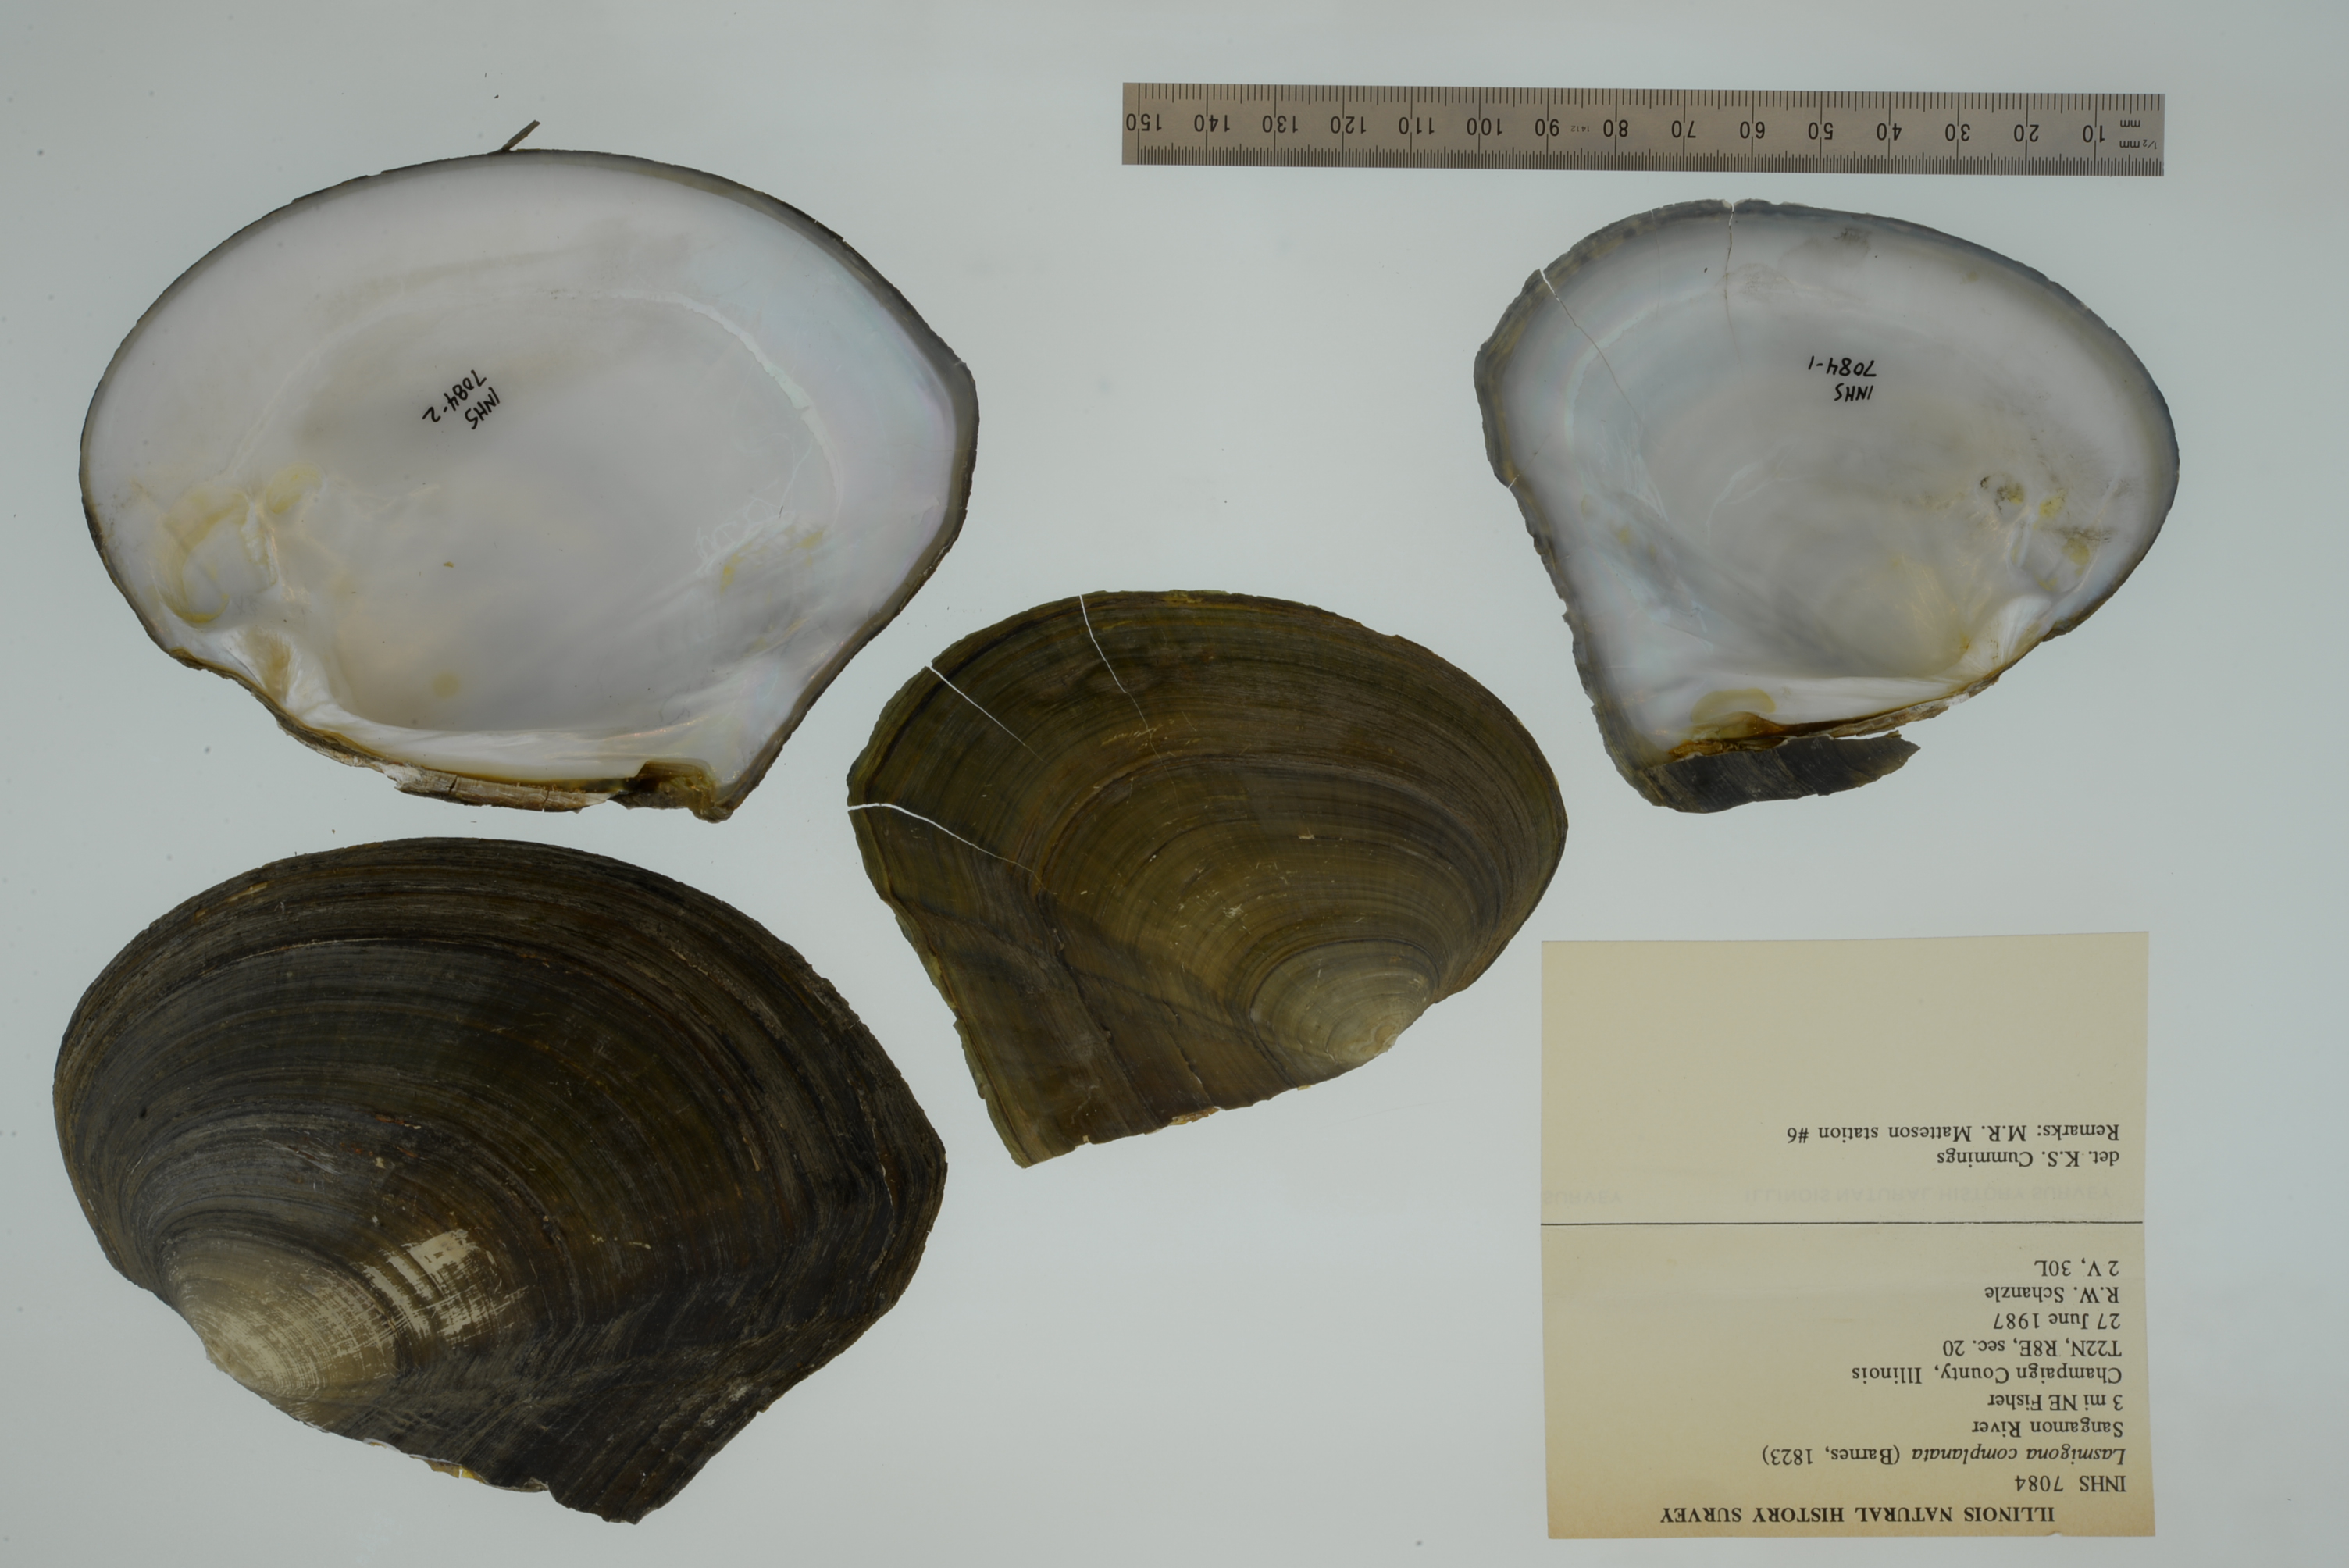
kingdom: Animalia
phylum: Mollusca
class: Bivalvia
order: Unionida
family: Unionidae
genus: Lasmigona
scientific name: Lasmigona complanata
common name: White heelsplitter
